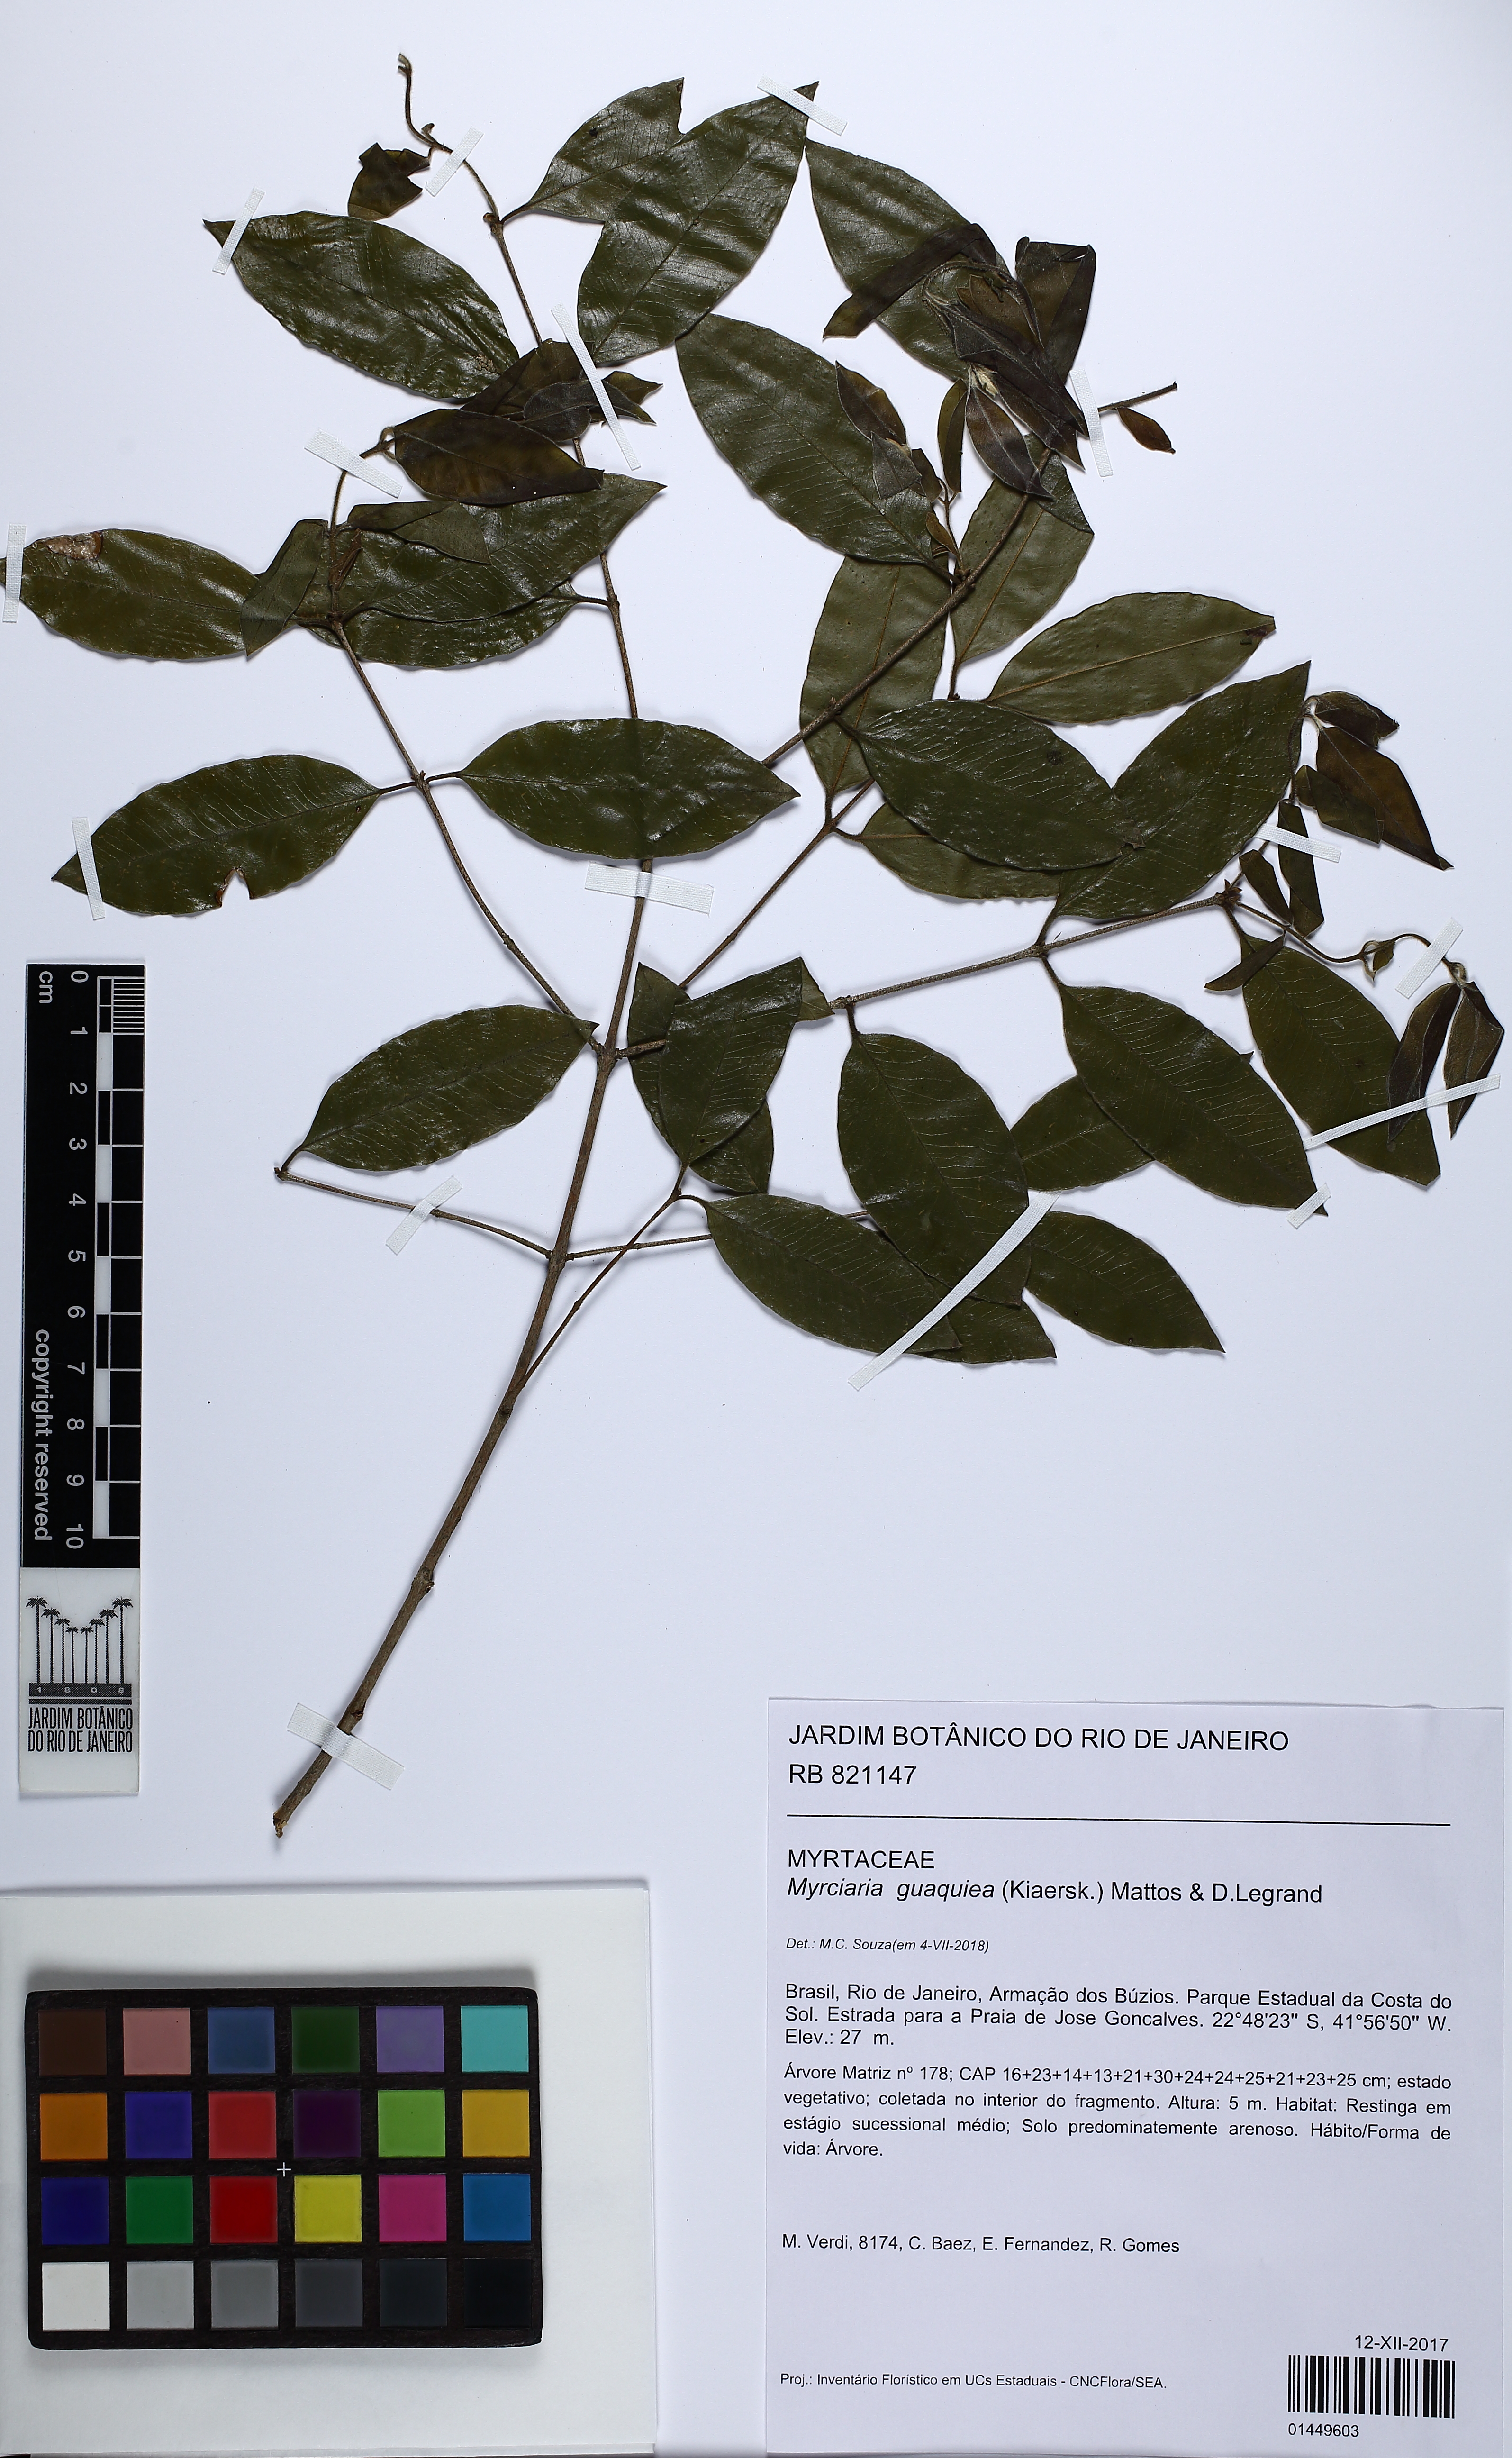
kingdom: Plantae
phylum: Tracheophyta
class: Magnoliopsida
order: Myrtales
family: Myrtaceae
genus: Myrciaria
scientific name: Myrciaria guaquiea
